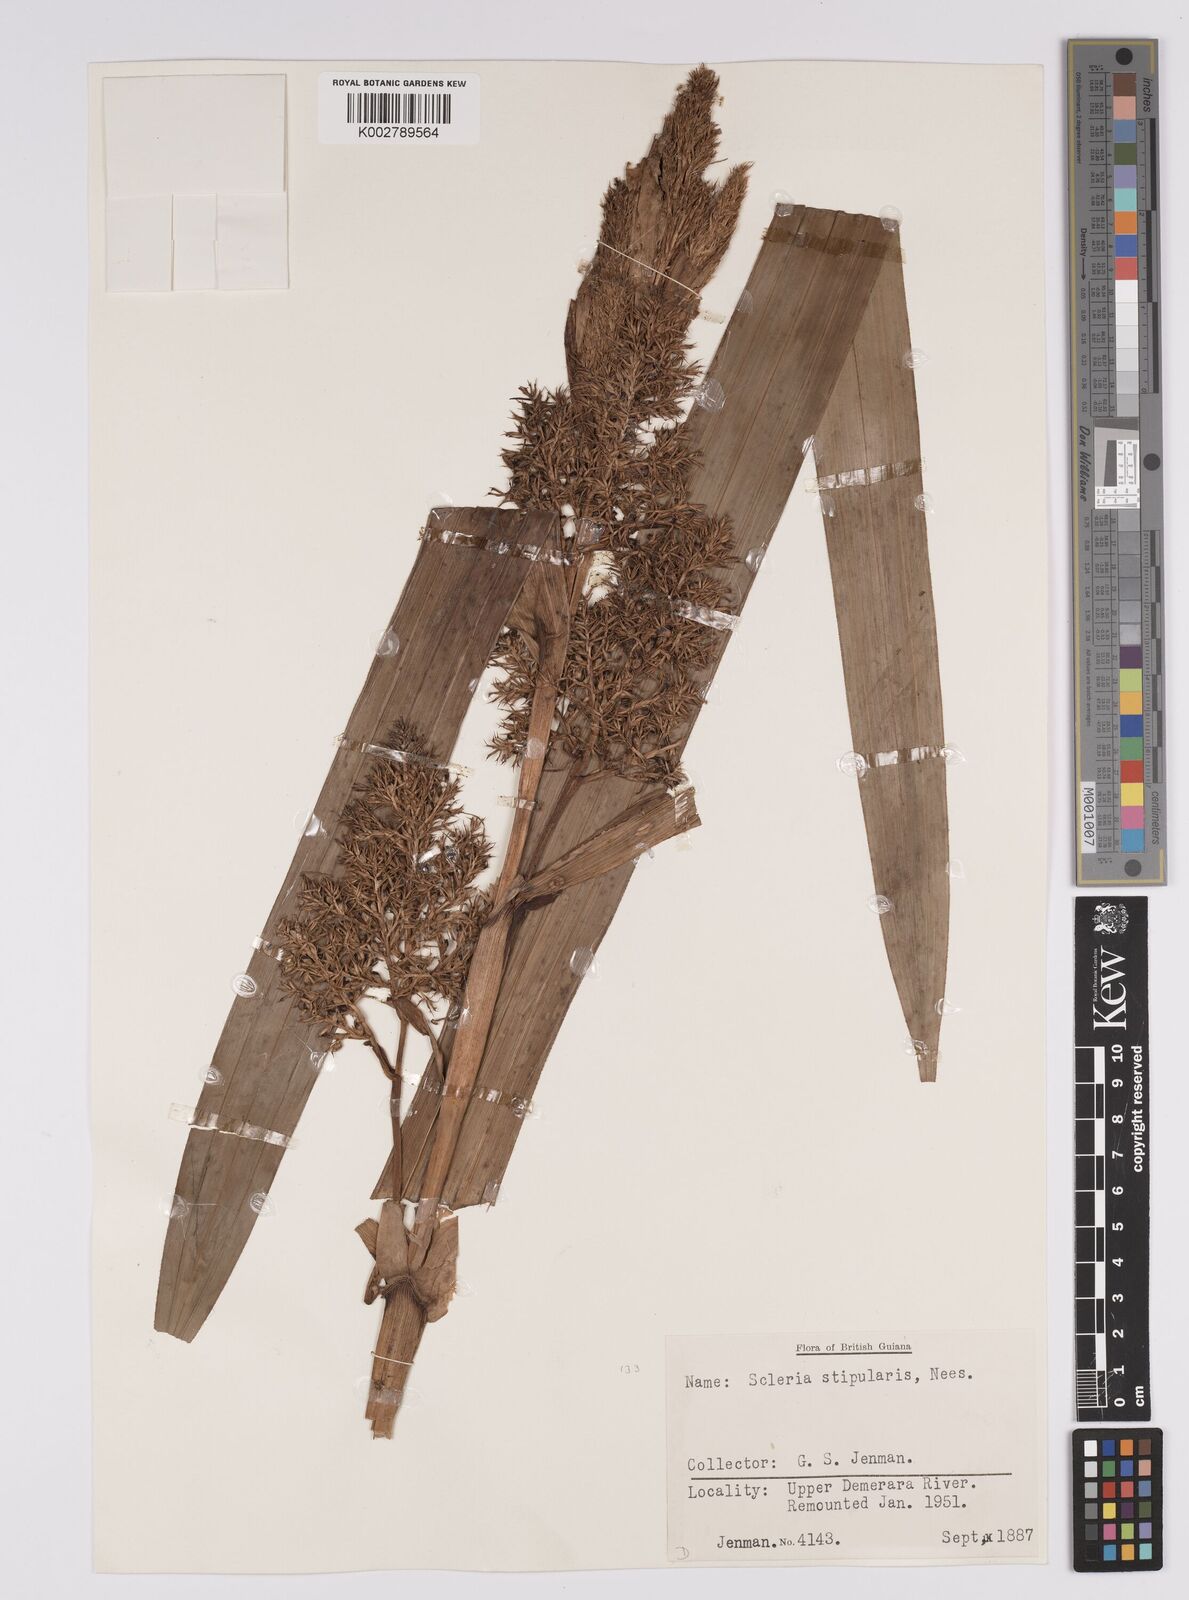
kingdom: Plantae
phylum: Tracheophyta
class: Liliopsida
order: Poales
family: Cyperaceae
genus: Scleria
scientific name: Scleria stipularis
